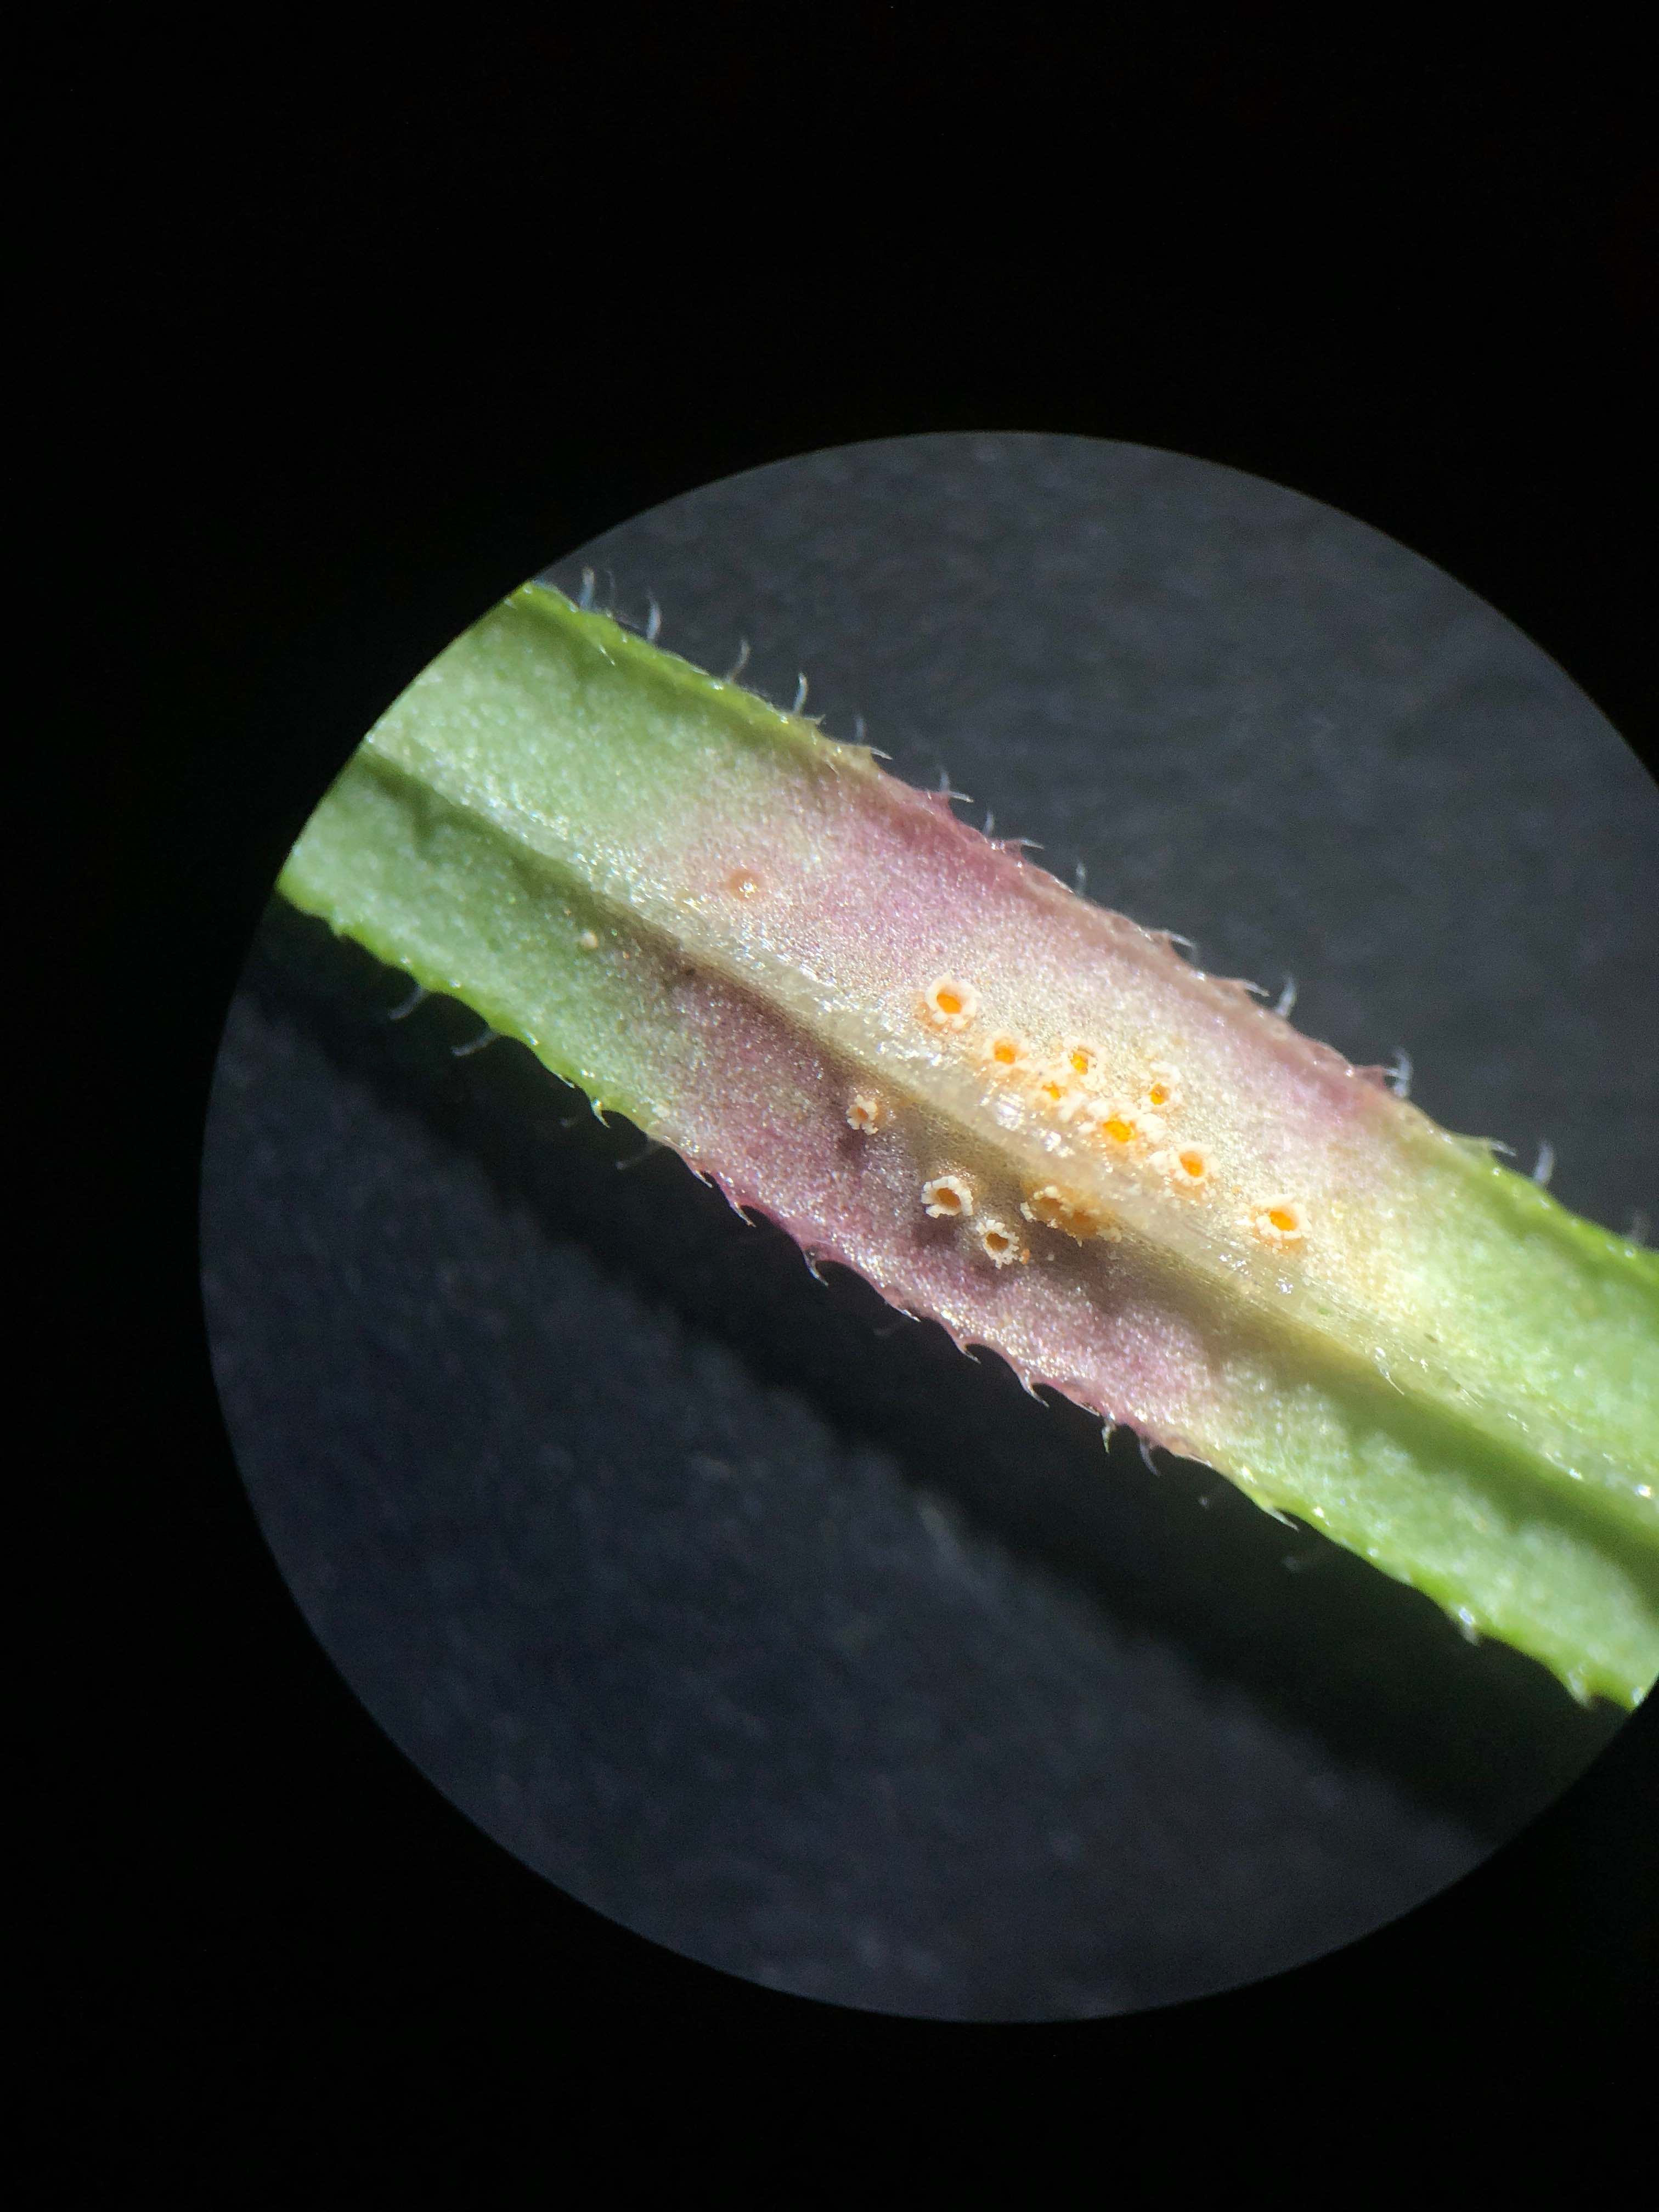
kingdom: Fungi
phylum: Basidiomycota
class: Pucciniomycetes
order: Pucciniales
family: Pucciniaceae
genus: Puccinia
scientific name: Puccinia punctata
